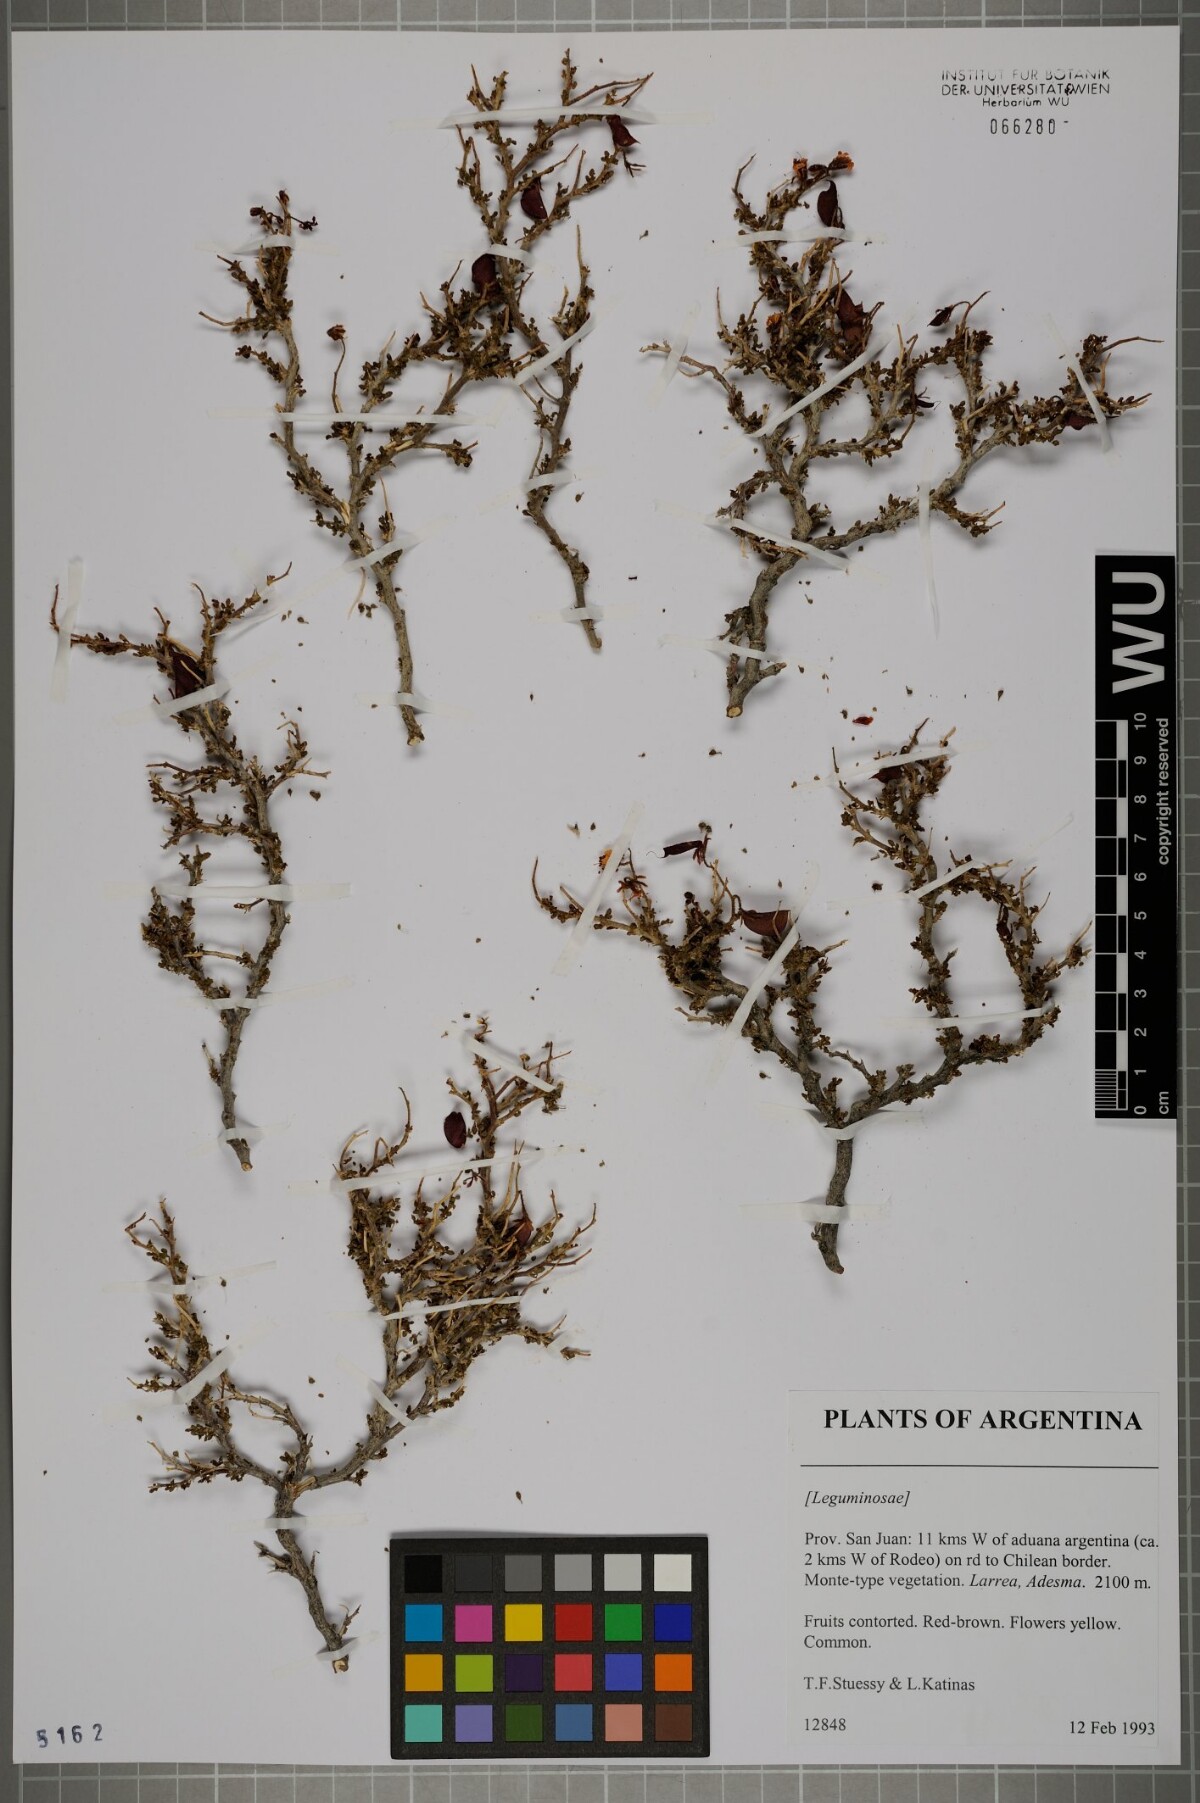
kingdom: Plantae
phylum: Tracheophyta
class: Magnoliopsida
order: Fabales
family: Fabaceae
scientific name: Fabaceae
